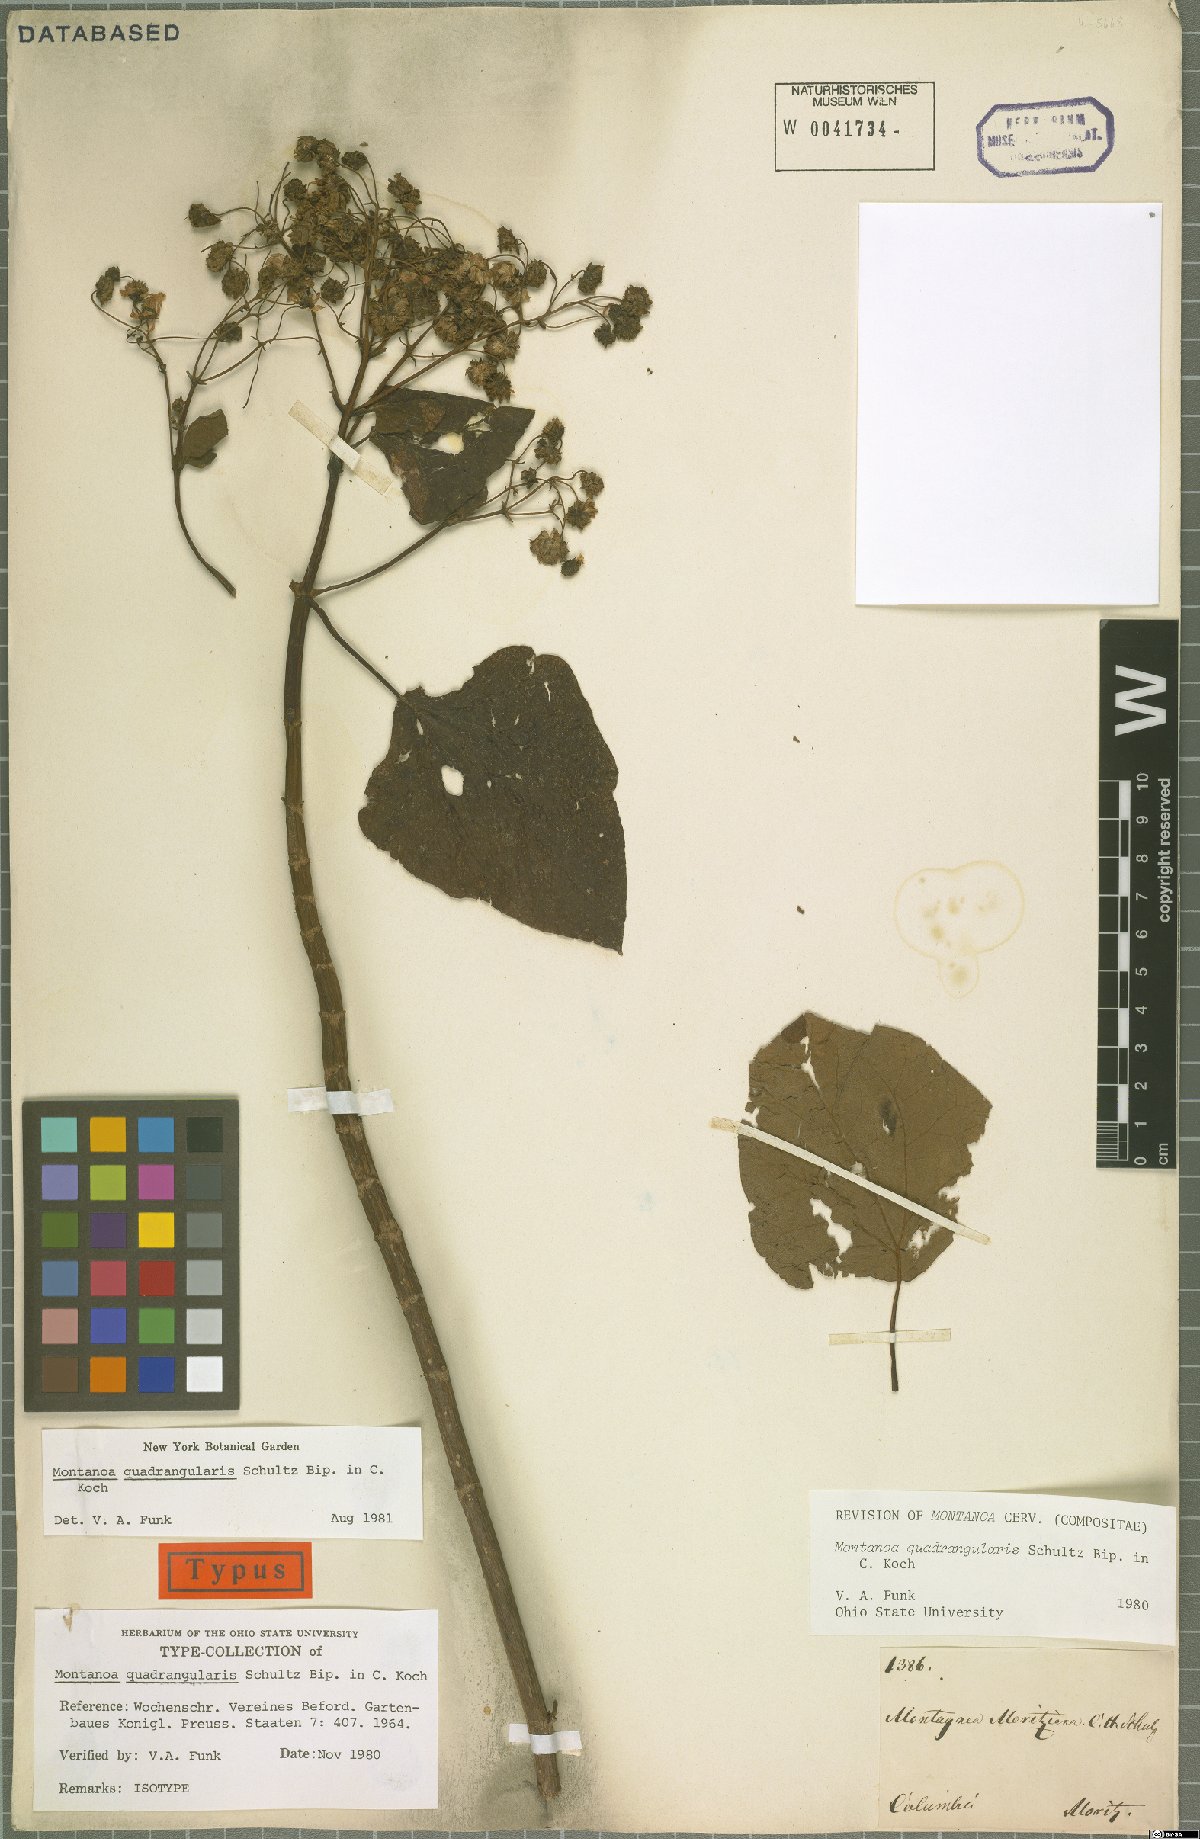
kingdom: Plantae
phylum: Tracheophyta
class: Magnoliopsida
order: Asterales
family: Asteraceae
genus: Montanoa
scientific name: Montanoa quadrangularis
